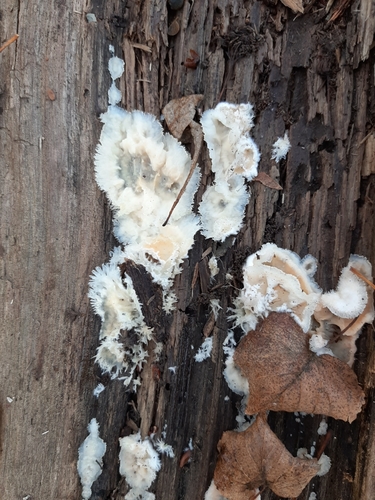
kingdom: Fungi
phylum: Basidiomycota
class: Agaricomycetes
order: Polyporales
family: Meruliaceae
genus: Phlebia
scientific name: Phlebia tremellosa
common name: Jelly rot
